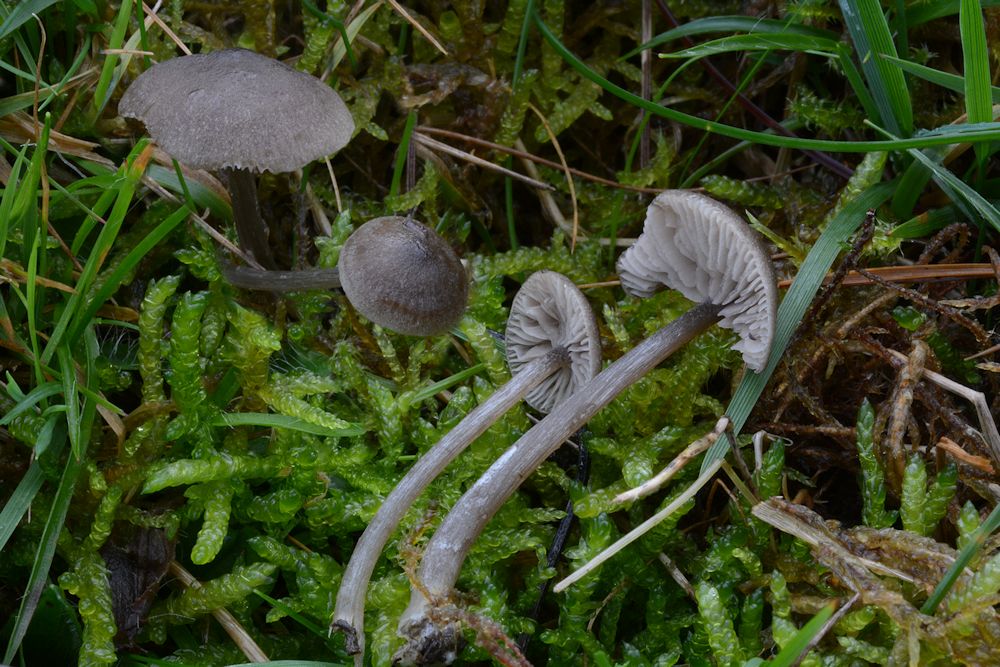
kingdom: Fungi
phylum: Basidiomycota
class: Agaricomycetes
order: Agaricales
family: Entolomataceae
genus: Entoloma
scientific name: Entoloma lucidum
